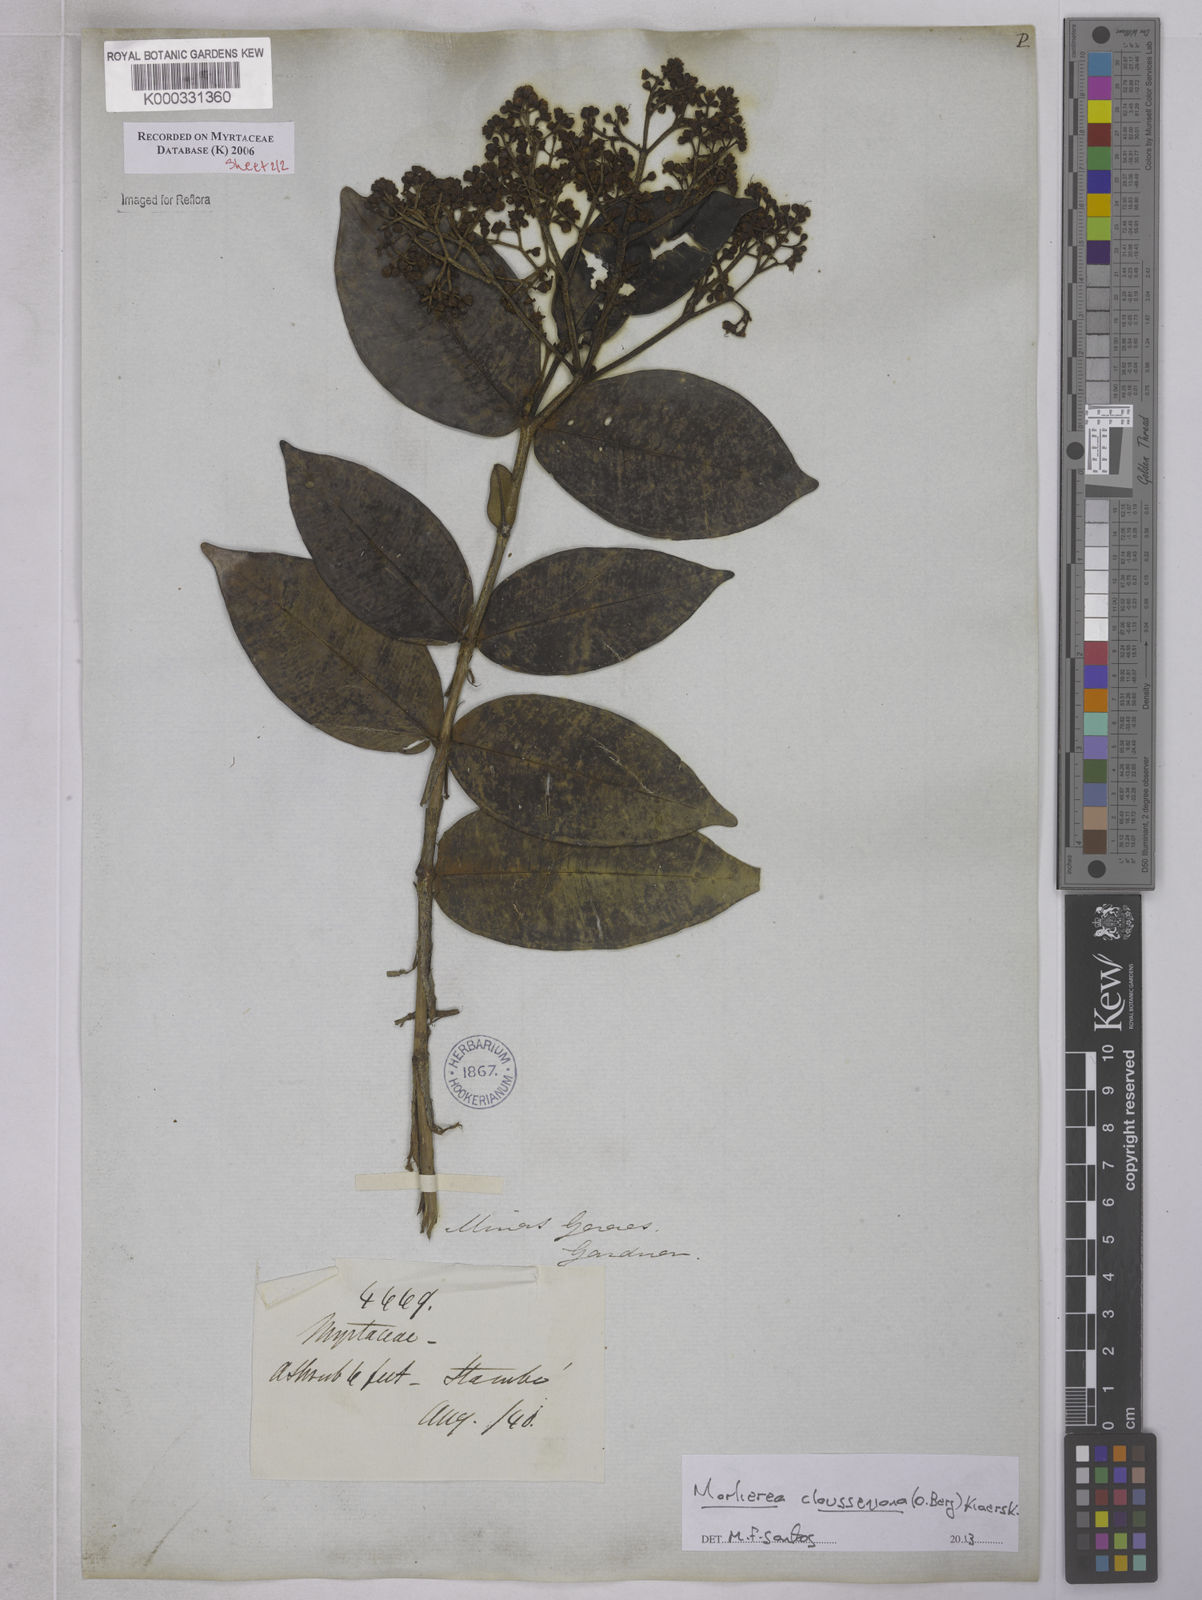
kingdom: Plantae
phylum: Tracheophyta
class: Magnoliopsida
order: Myrtales
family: Myrtaceae
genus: Marlierea
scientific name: Marlierea
